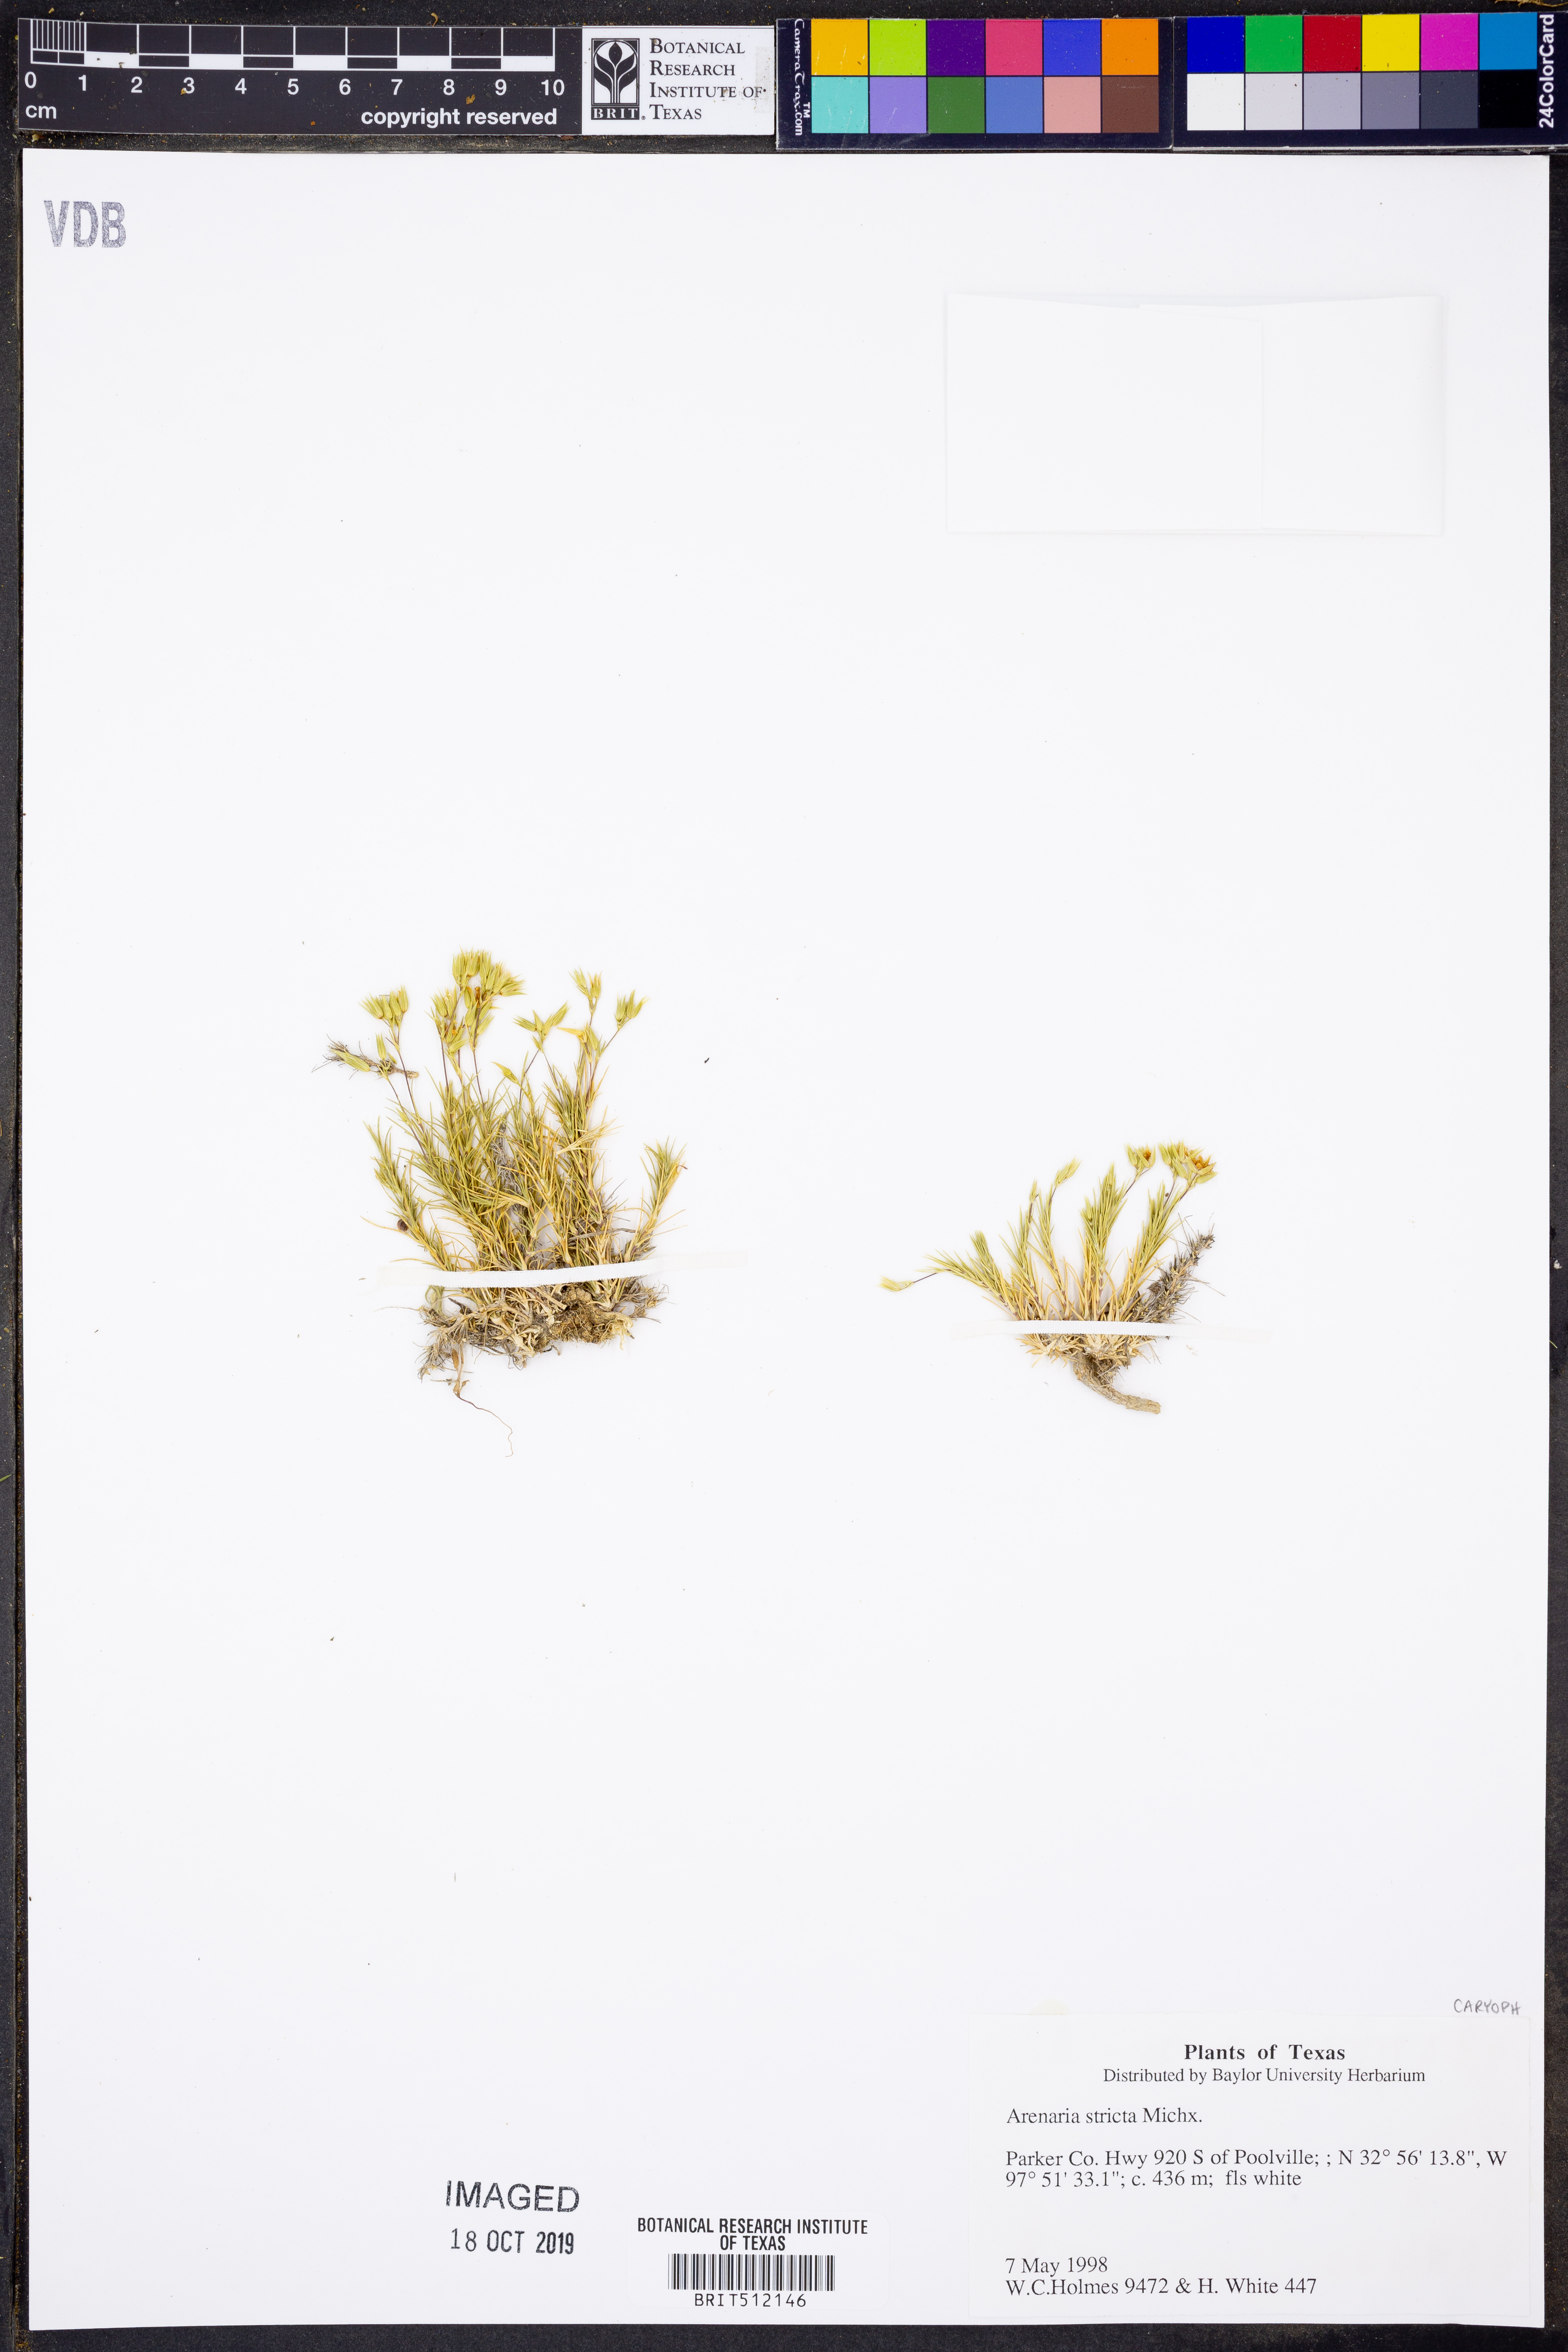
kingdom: Plantae
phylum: Tracheophyta
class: Magnoliopsida
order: Caryophyllales
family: Caryophyllaceae
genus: Sabulina
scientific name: Sabulina michauxii
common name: Michaux's stitchwort
